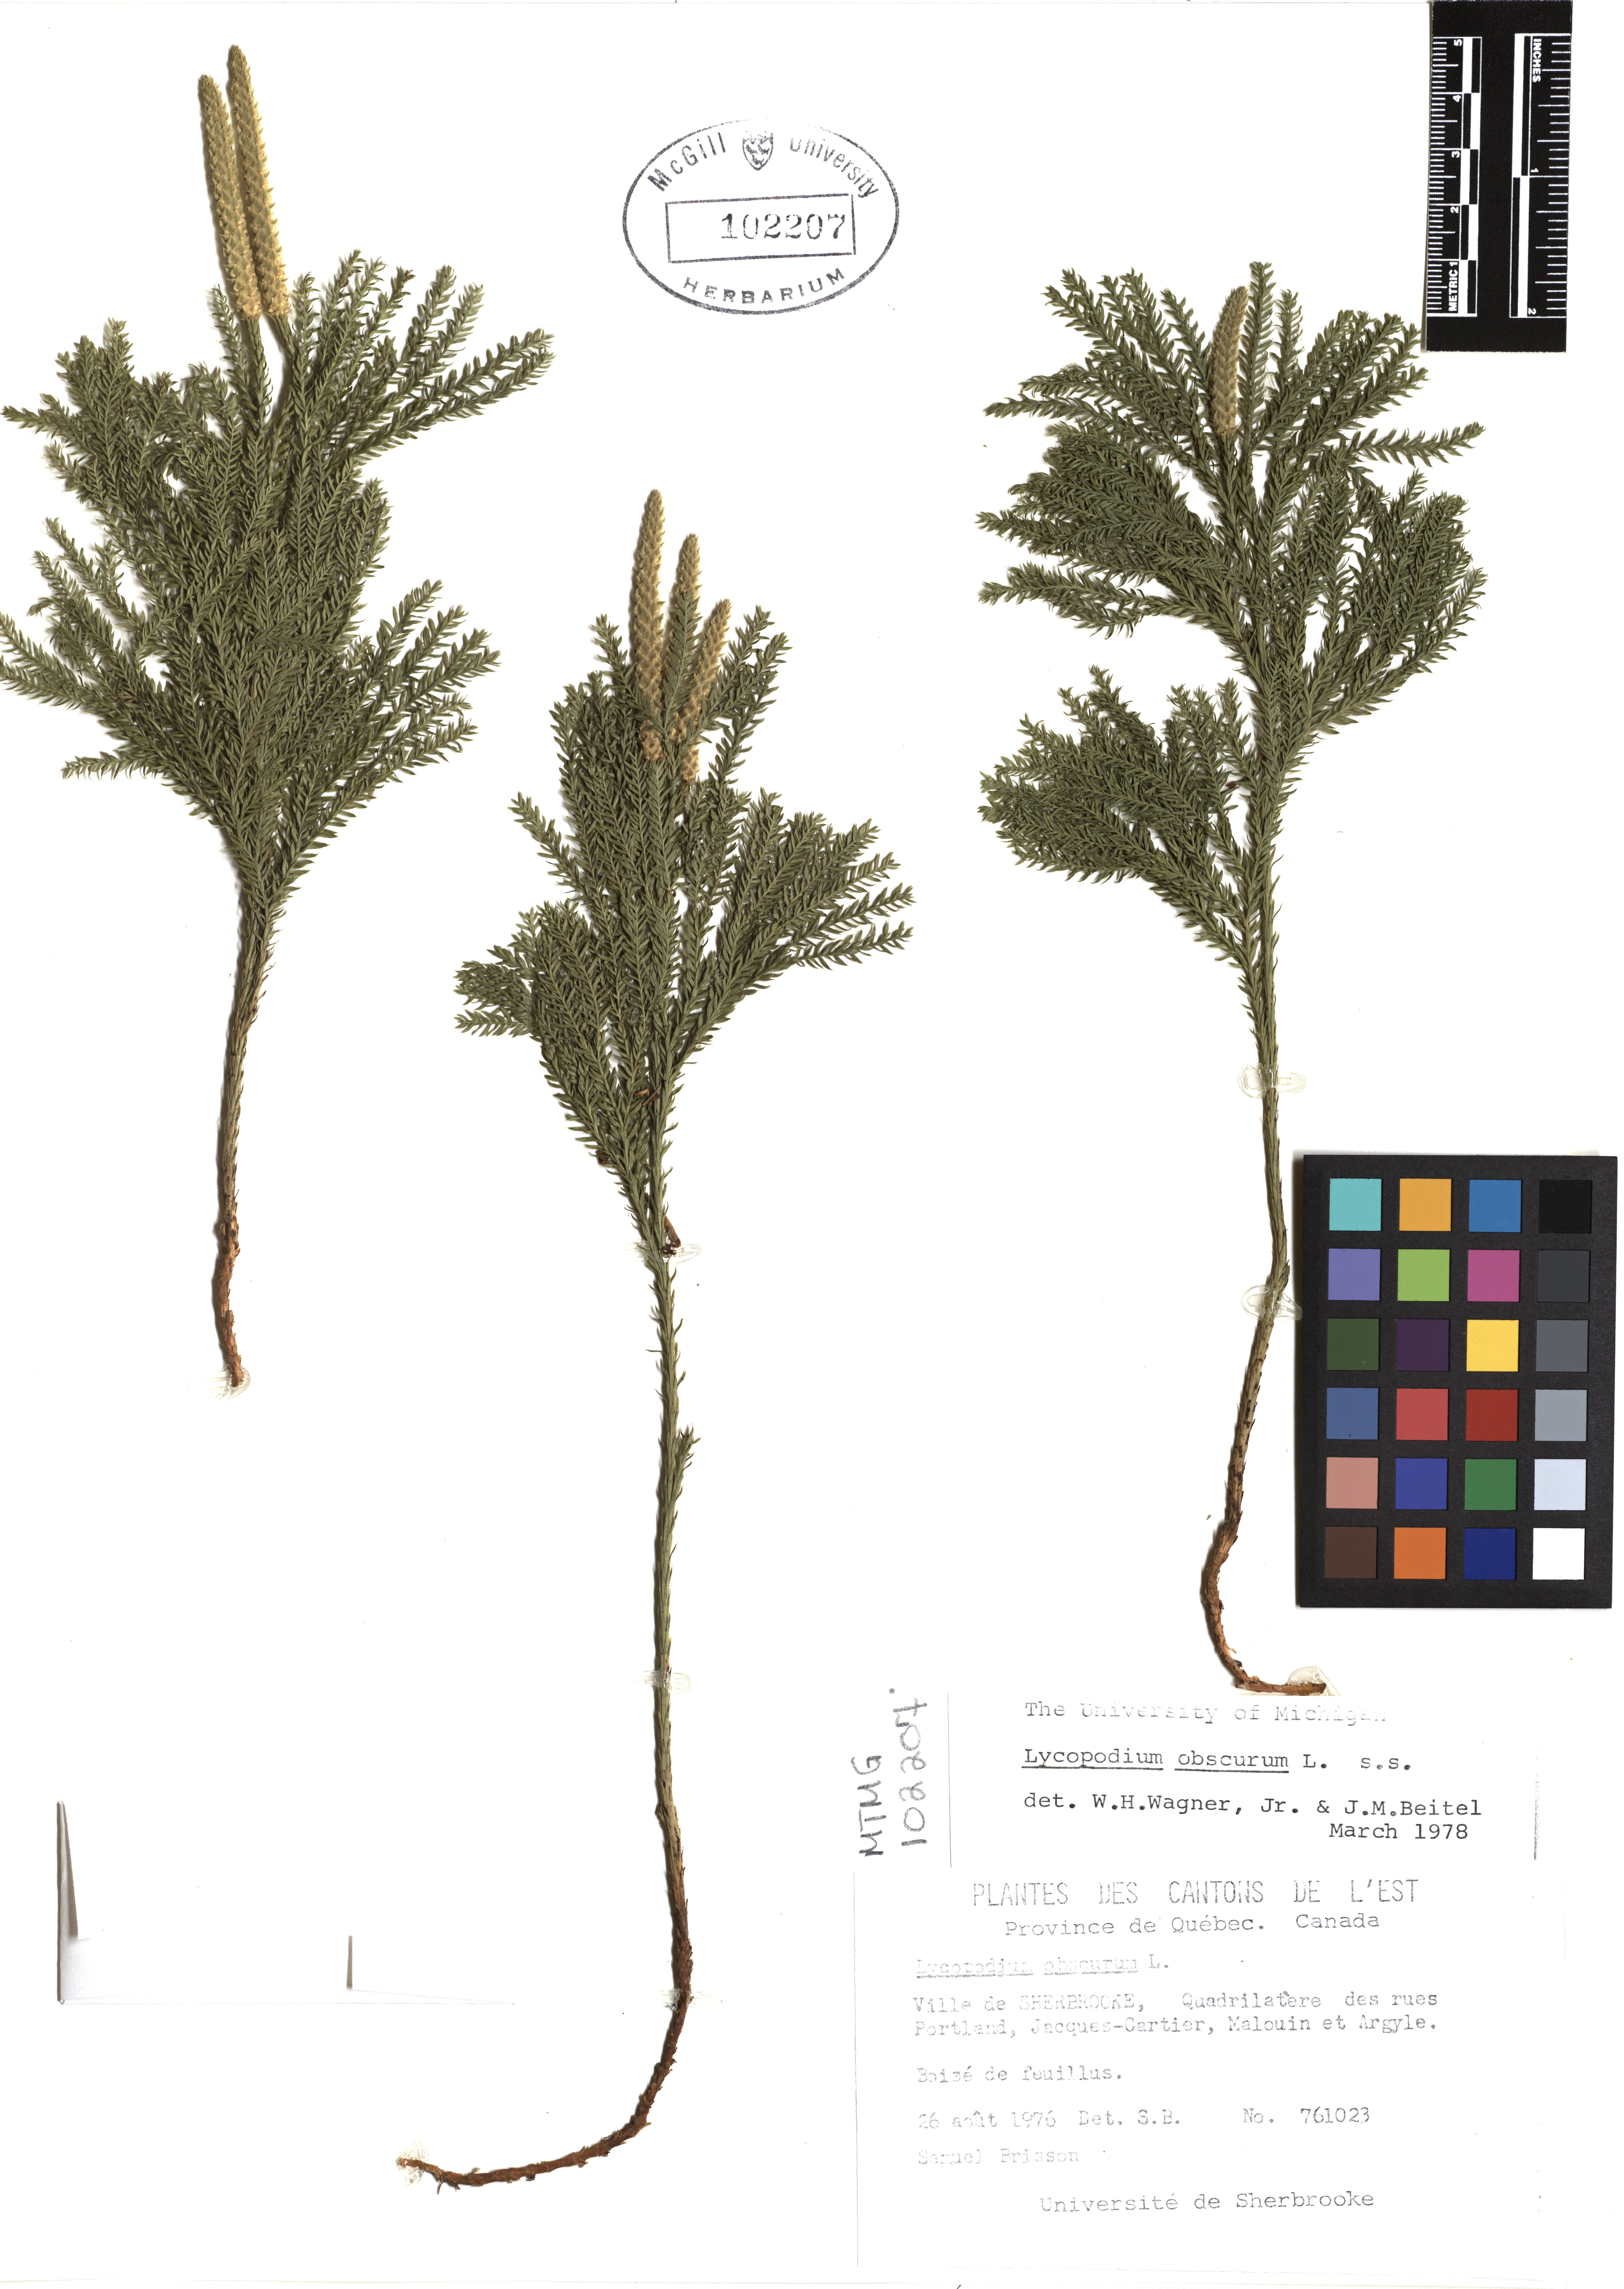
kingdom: Plantae
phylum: Tracheophyta
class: Lycopodiopsida
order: Lycopodiales
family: Lycopodiaceae
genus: Dendrolycopodium
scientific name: Dendrolycopodium obscurum
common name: Common ground-pine
